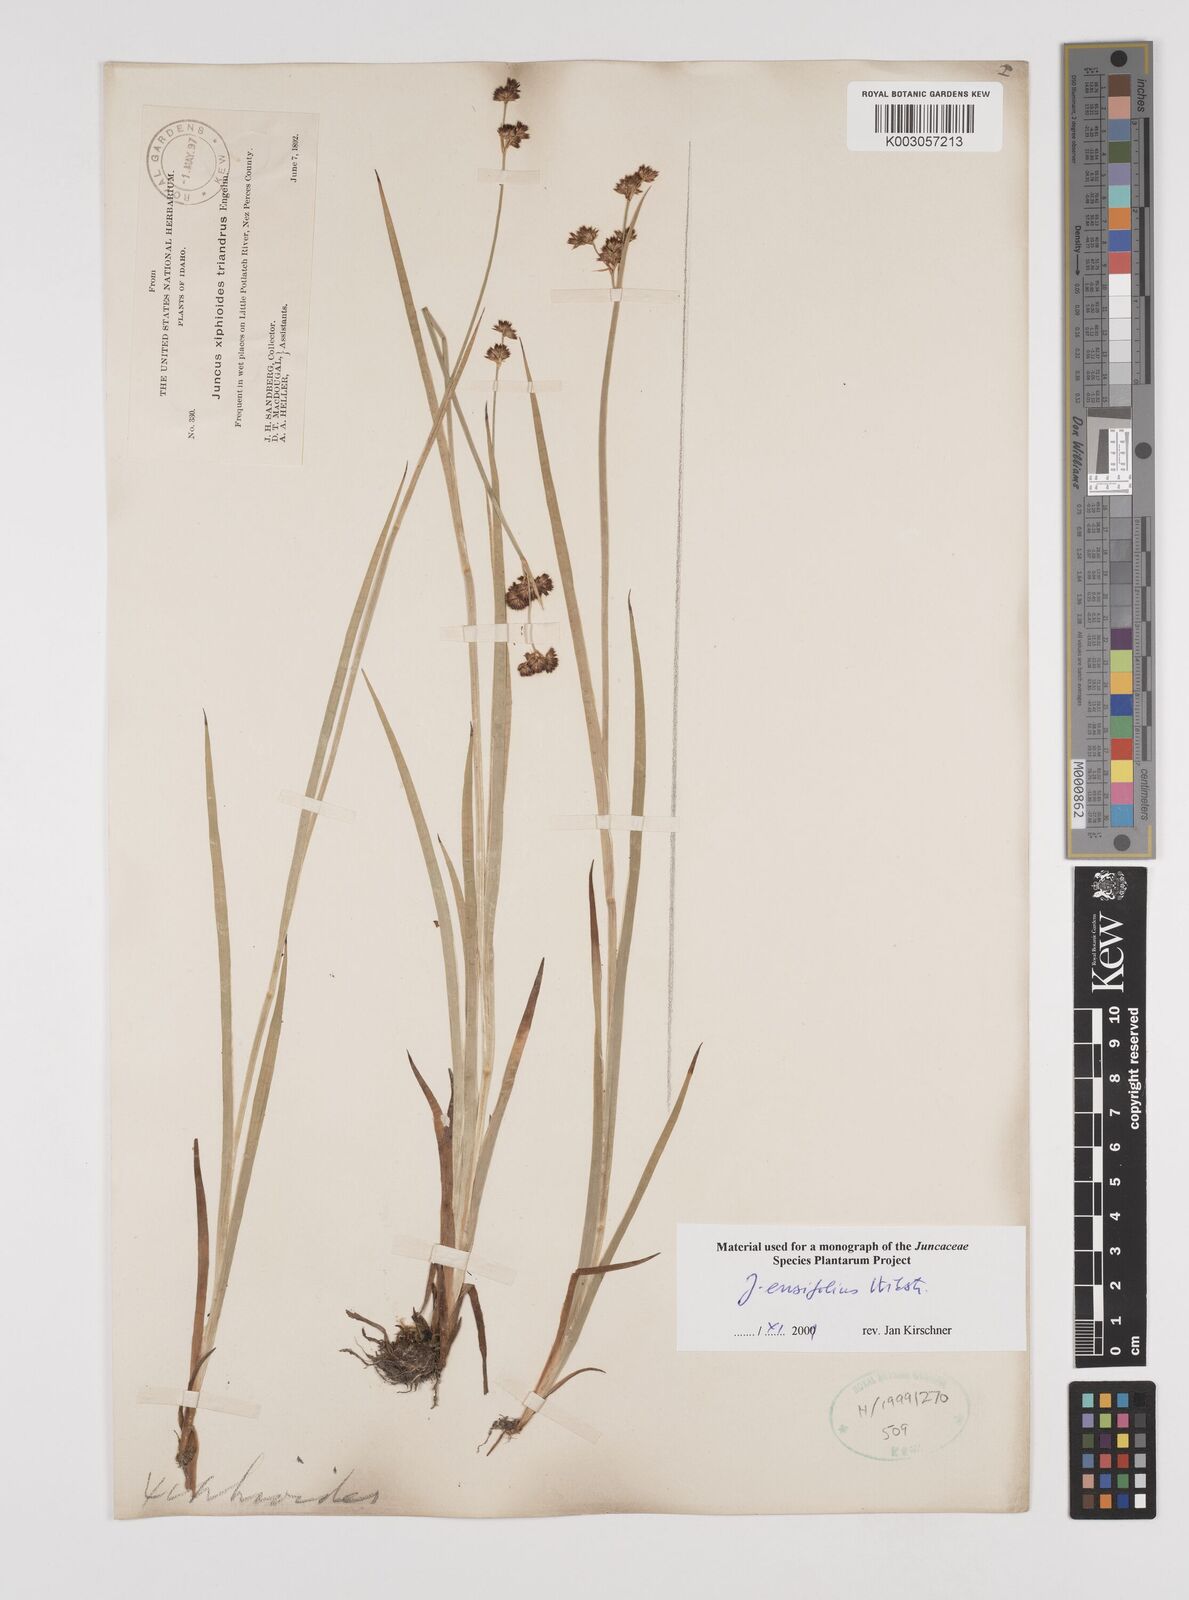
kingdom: Plantae
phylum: Tracheophyta
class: Liliopsida
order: Poales
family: Juncaceae
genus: Juncus
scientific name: Juncus ensifolius
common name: Sword-leaved rush
